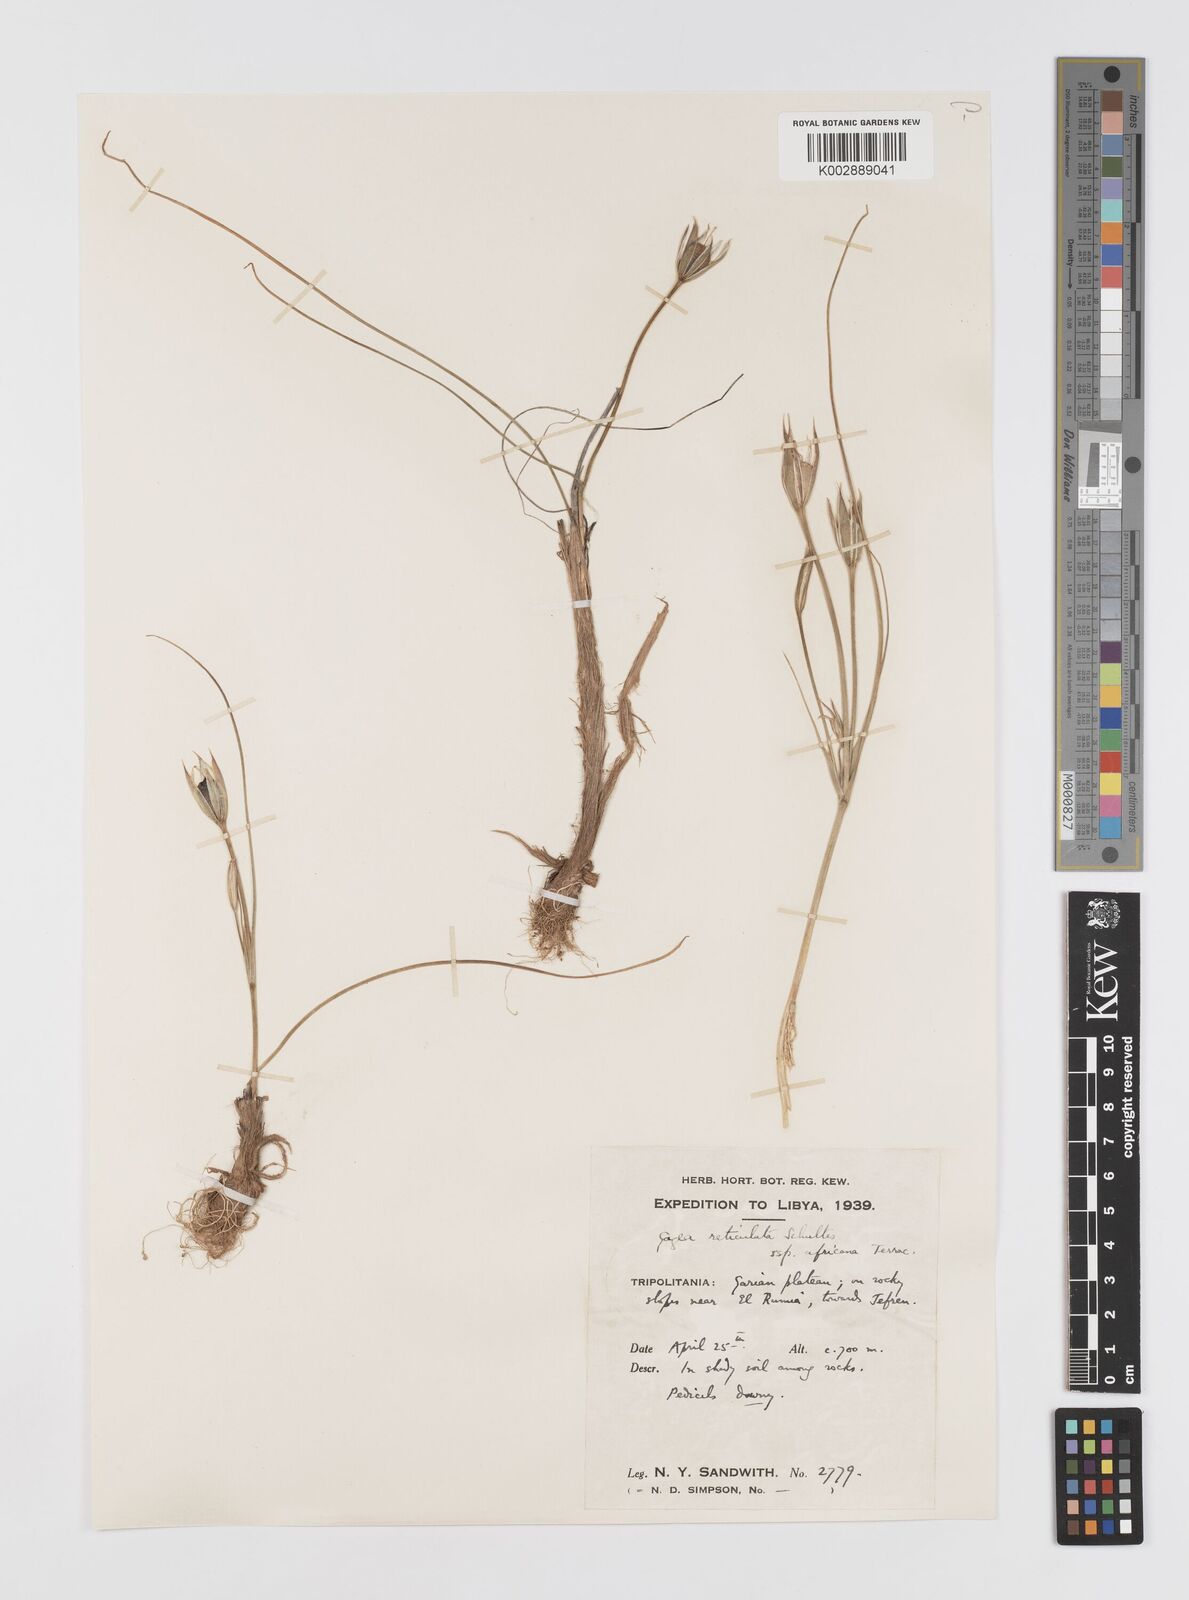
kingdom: Plantae
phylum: Tracheophyta
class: Liliopsida
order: Liliales
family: Liliaceae
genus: Gagea
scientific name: Gagea reticulata
